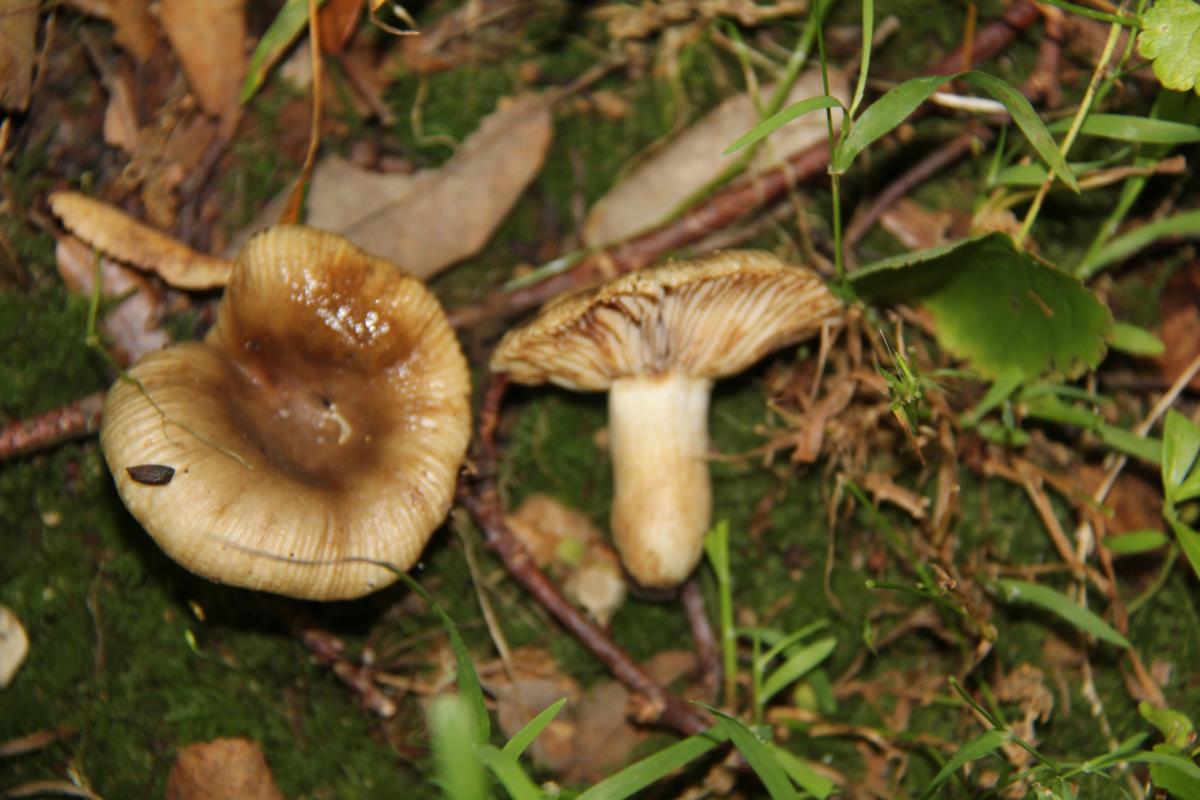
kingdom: Fungi
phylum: Basidiomycota
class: Agaricomycetes
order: Russulales
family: Russulaceae
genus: Russula
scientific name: Russula amoenolens
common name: Camembert brittlegill
